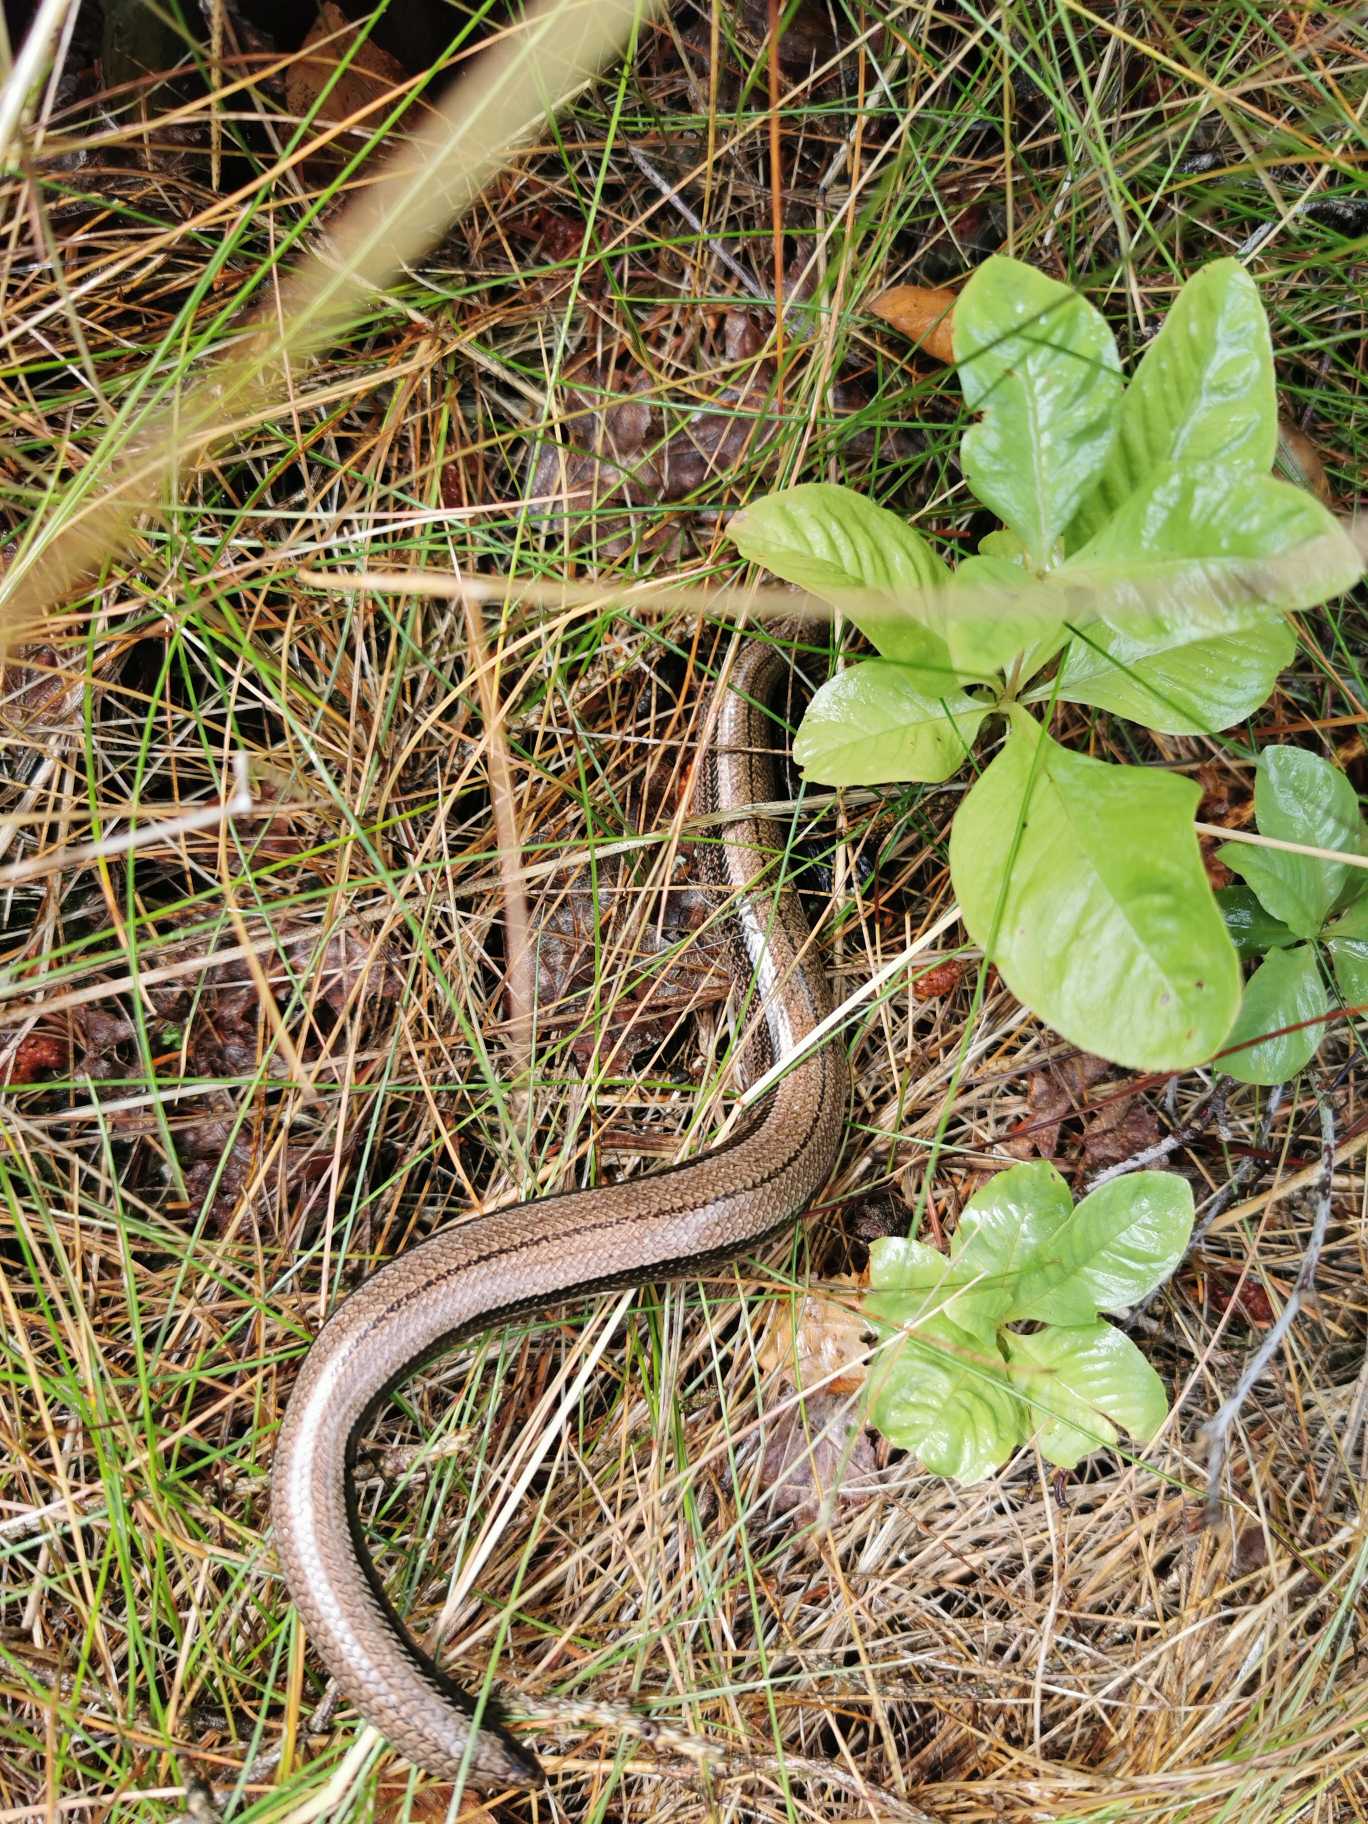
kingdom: Animalia
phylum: Chordata
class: Squamata
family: Anguidae
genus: Anguis
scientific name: Anguis fragilis
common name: Stålorm
